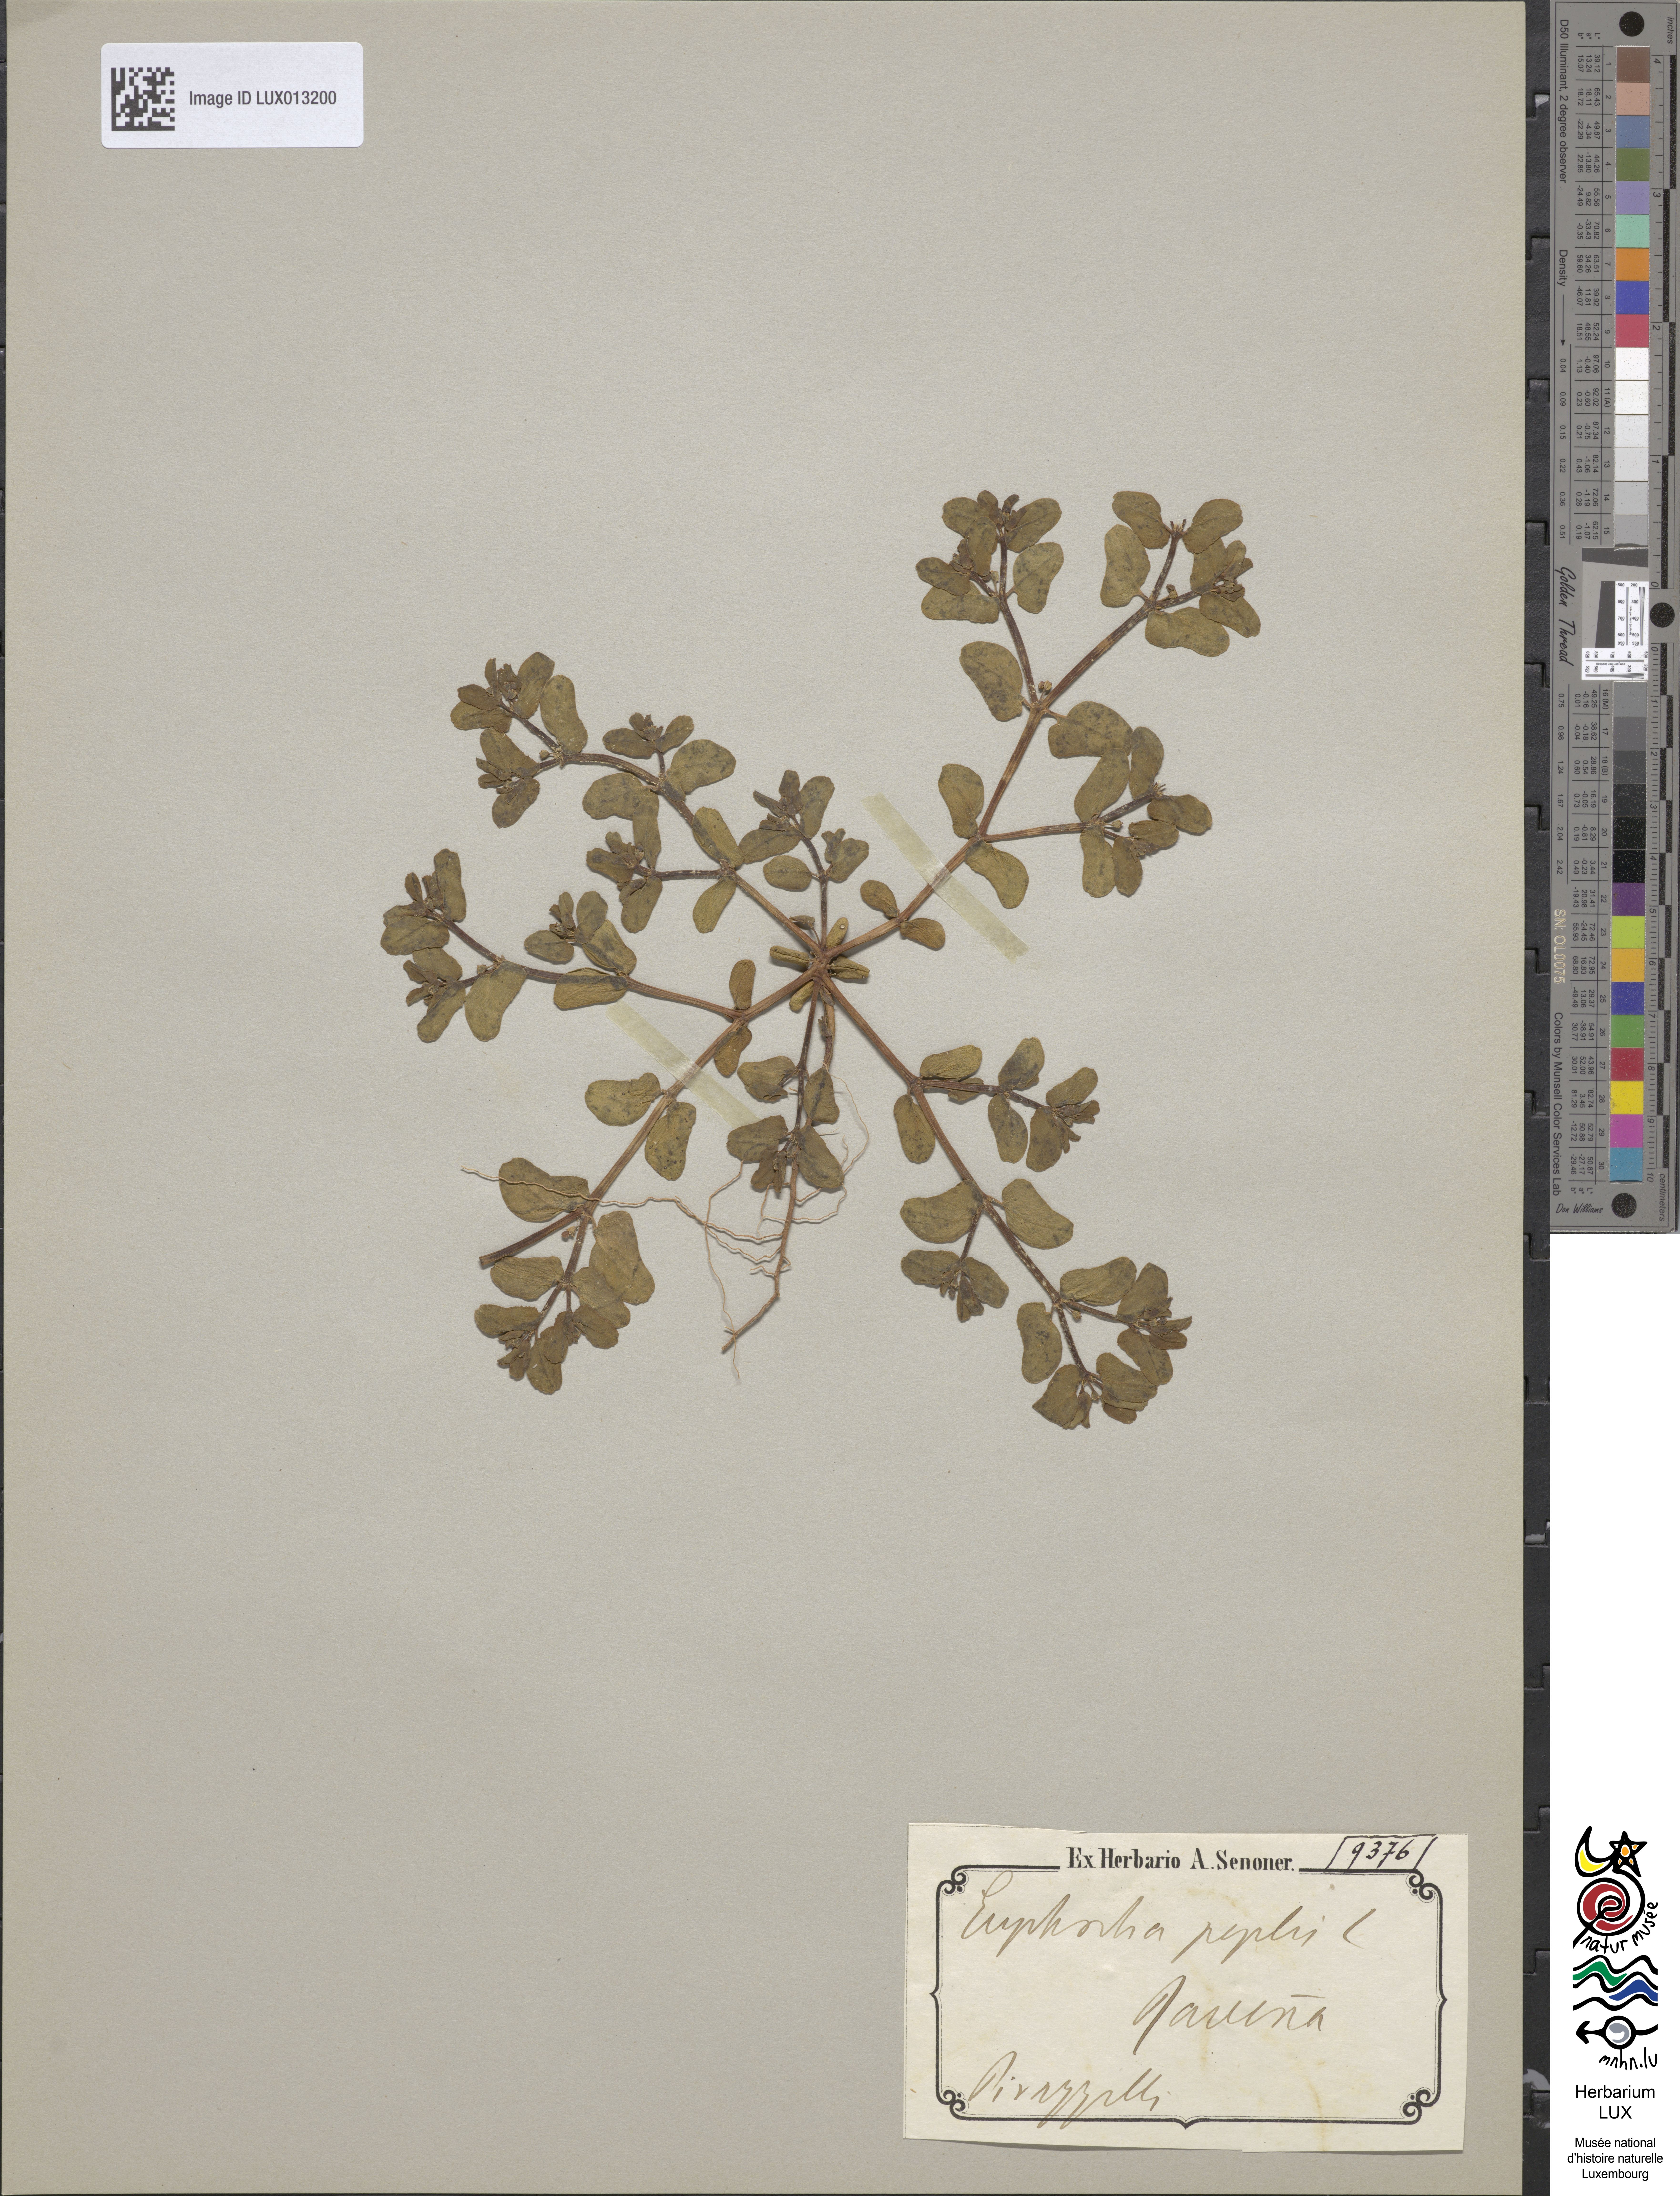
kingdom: Plantae
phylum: Tracheophyta
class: Magnoliopsida
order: Malpighiales
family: Euphorbiaceae
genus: Euphorbia
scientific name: Euphorbia peplus
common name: Petty spurge
